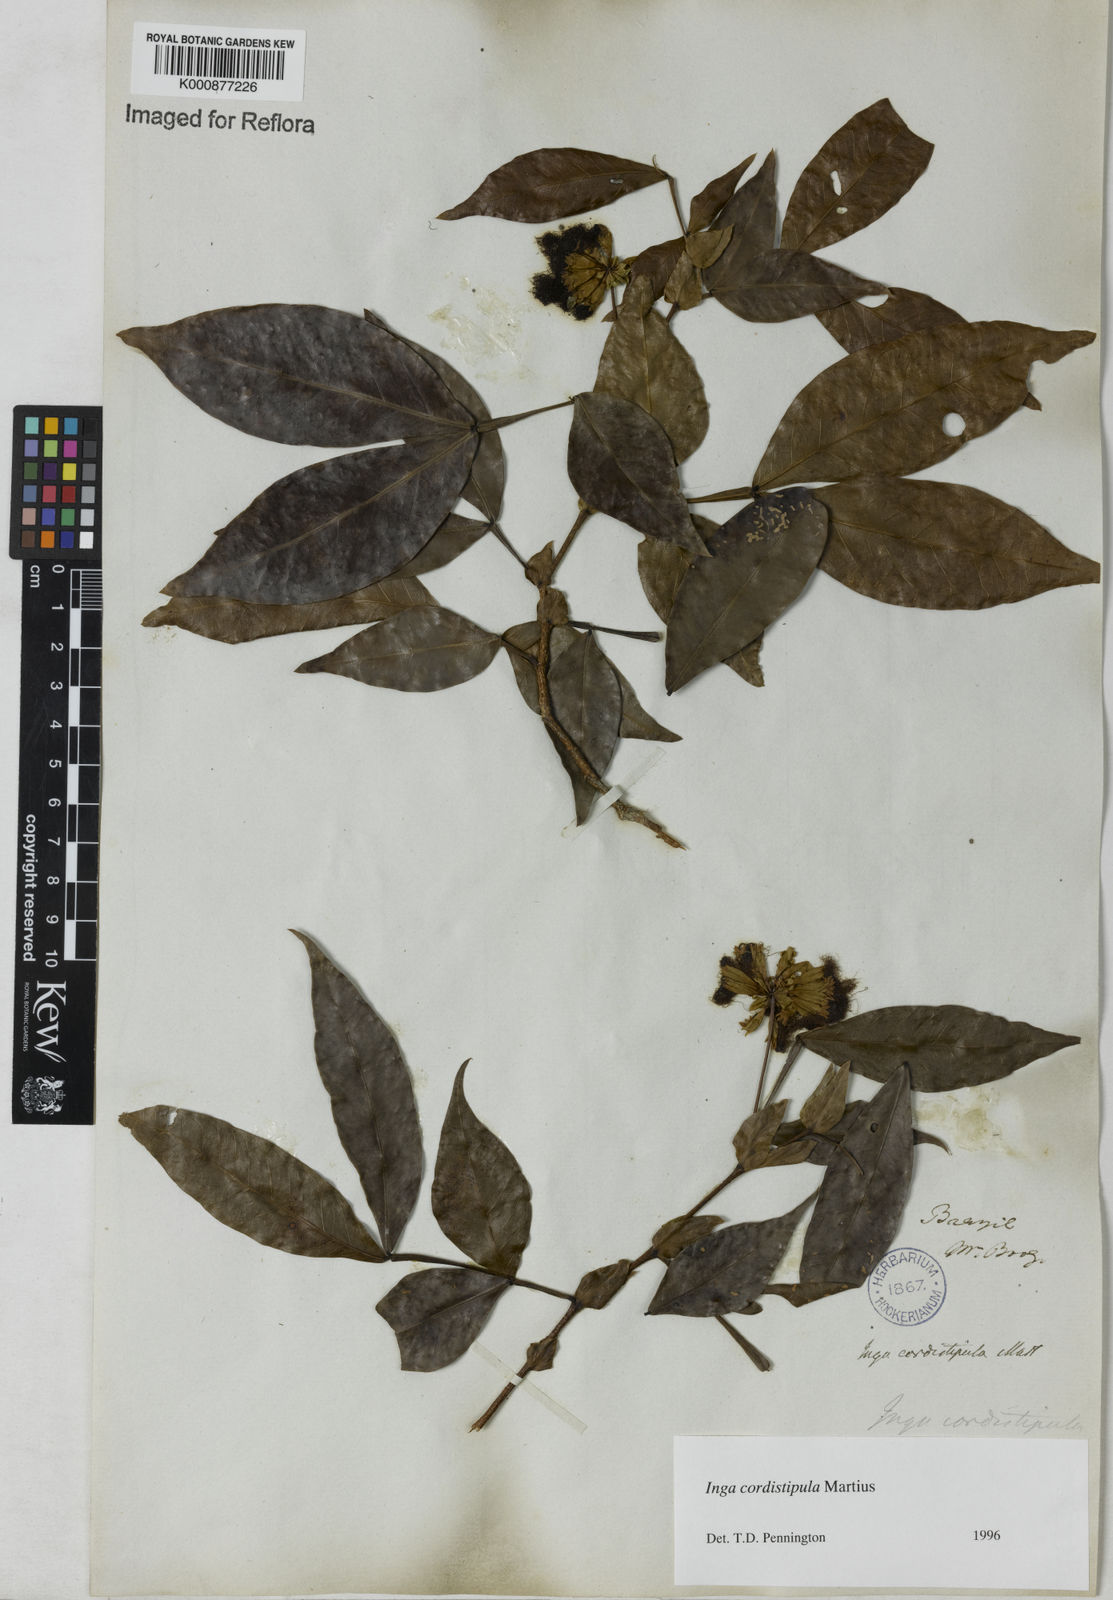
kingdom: Plantae
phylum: Tracheophyta
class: Magnoliopsida
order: Fabales
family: Fabaceae
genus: Inga
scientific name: Inga cordistipula
